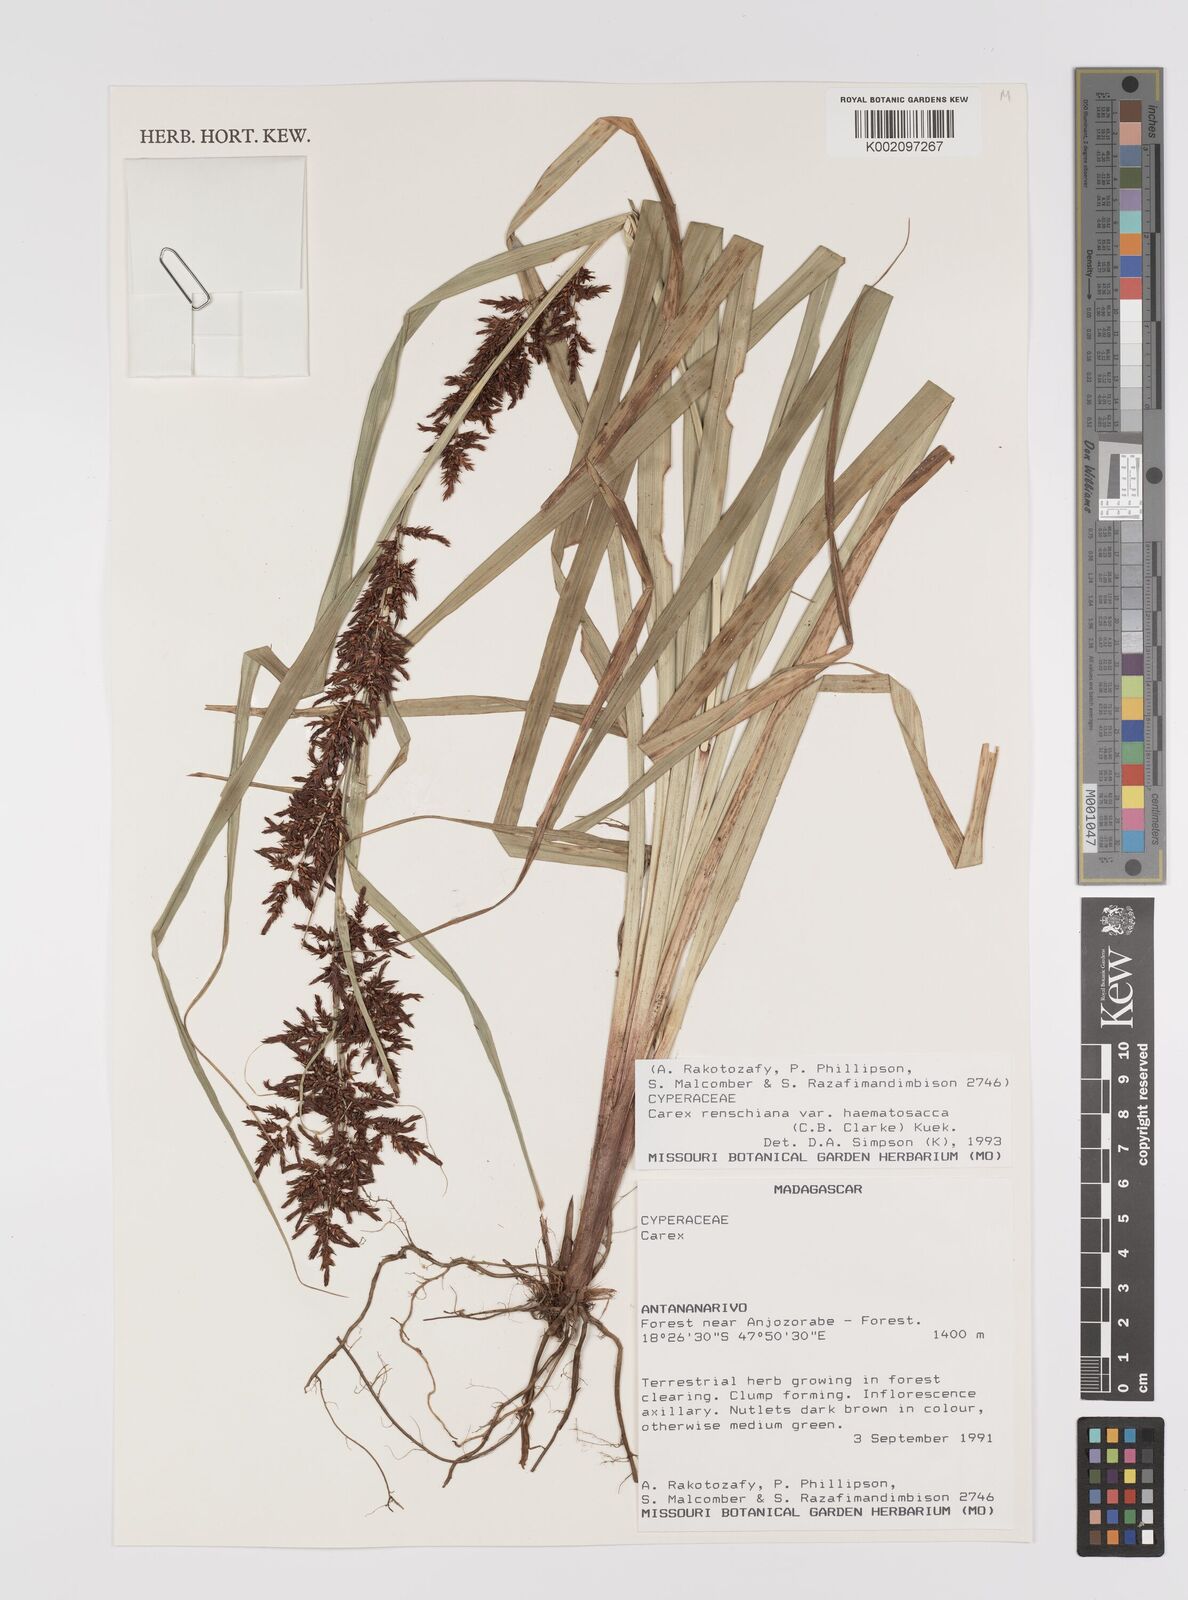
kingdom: Plantae
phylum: Tracheophyta
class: Liliopsida
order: Poales
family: Cyperaceae
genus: Carex
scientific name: Carex renschiana
